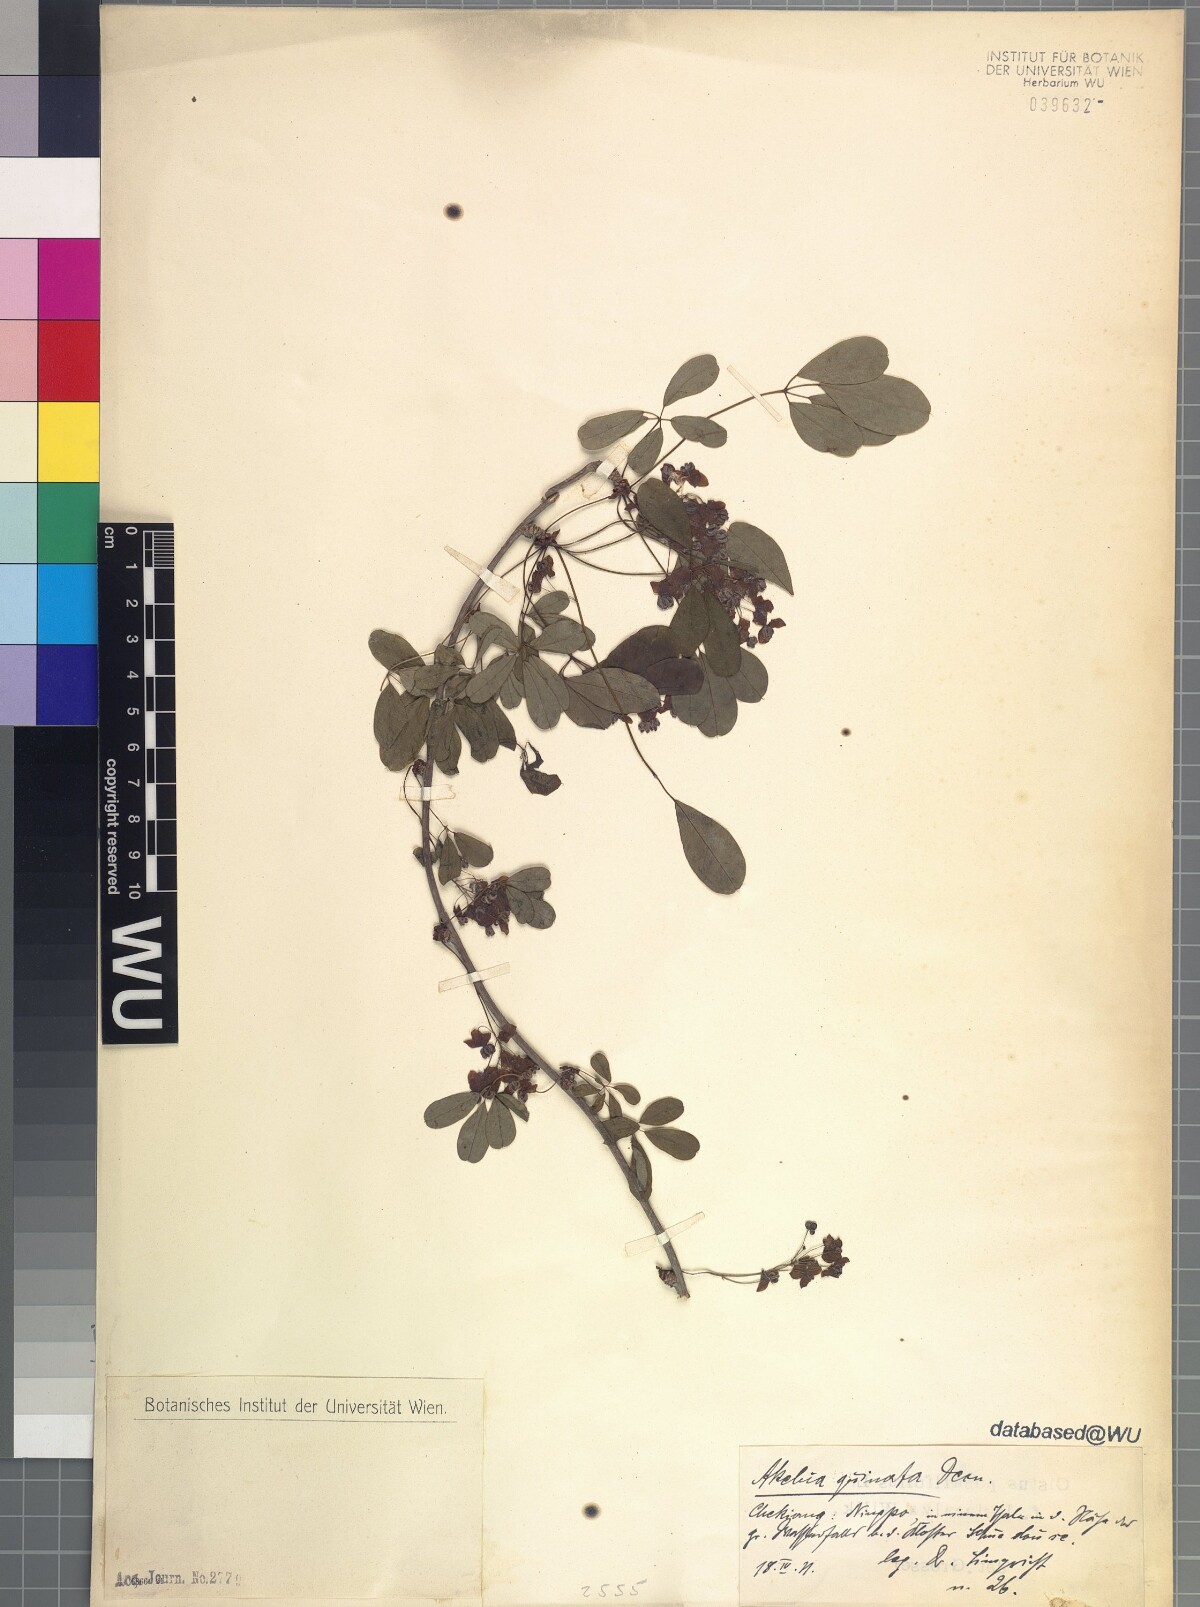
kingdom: Plantae
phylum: Tracheophyta
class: Magnoliopsida
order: Ranunculales
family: Lardizabalaceae
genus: Akebia
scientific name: Akebia quinata
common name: Five-leaf akebia
